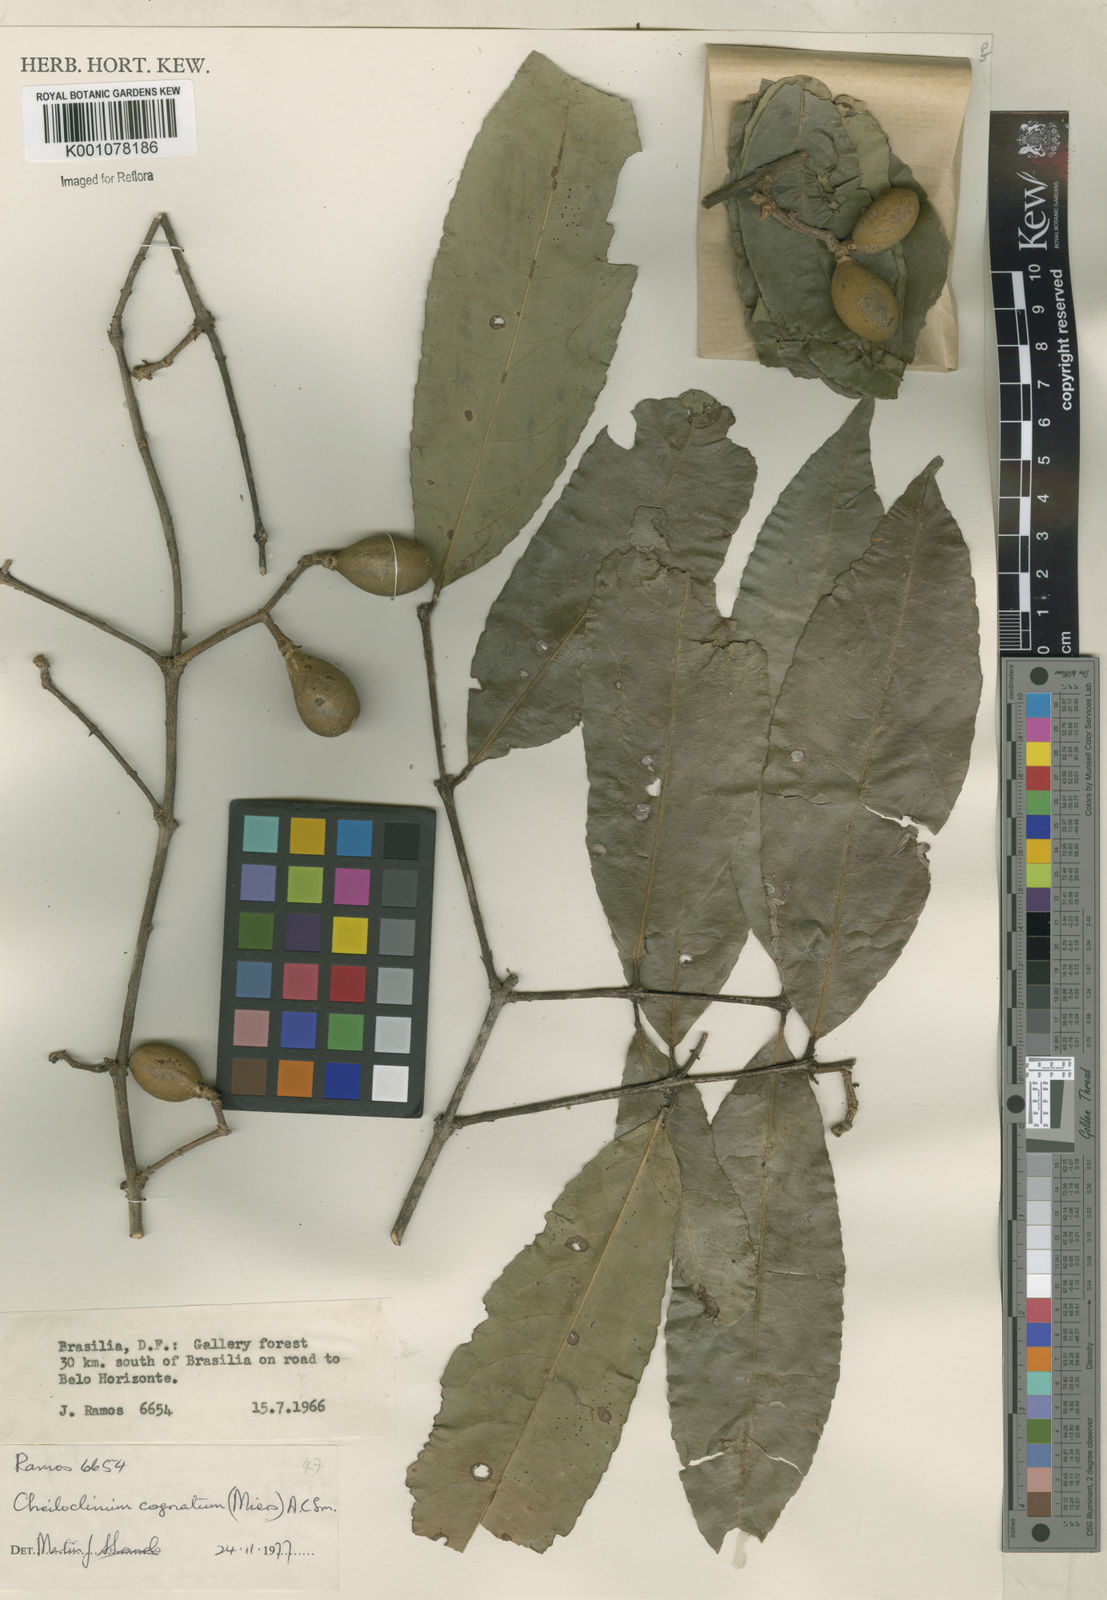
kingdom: Plantae
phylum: Tracheophyta
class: Magnoliopsida
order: Celastrales
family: Celastraceae
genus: Cheiloclinium
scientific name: Cheiloclinium cognatum
